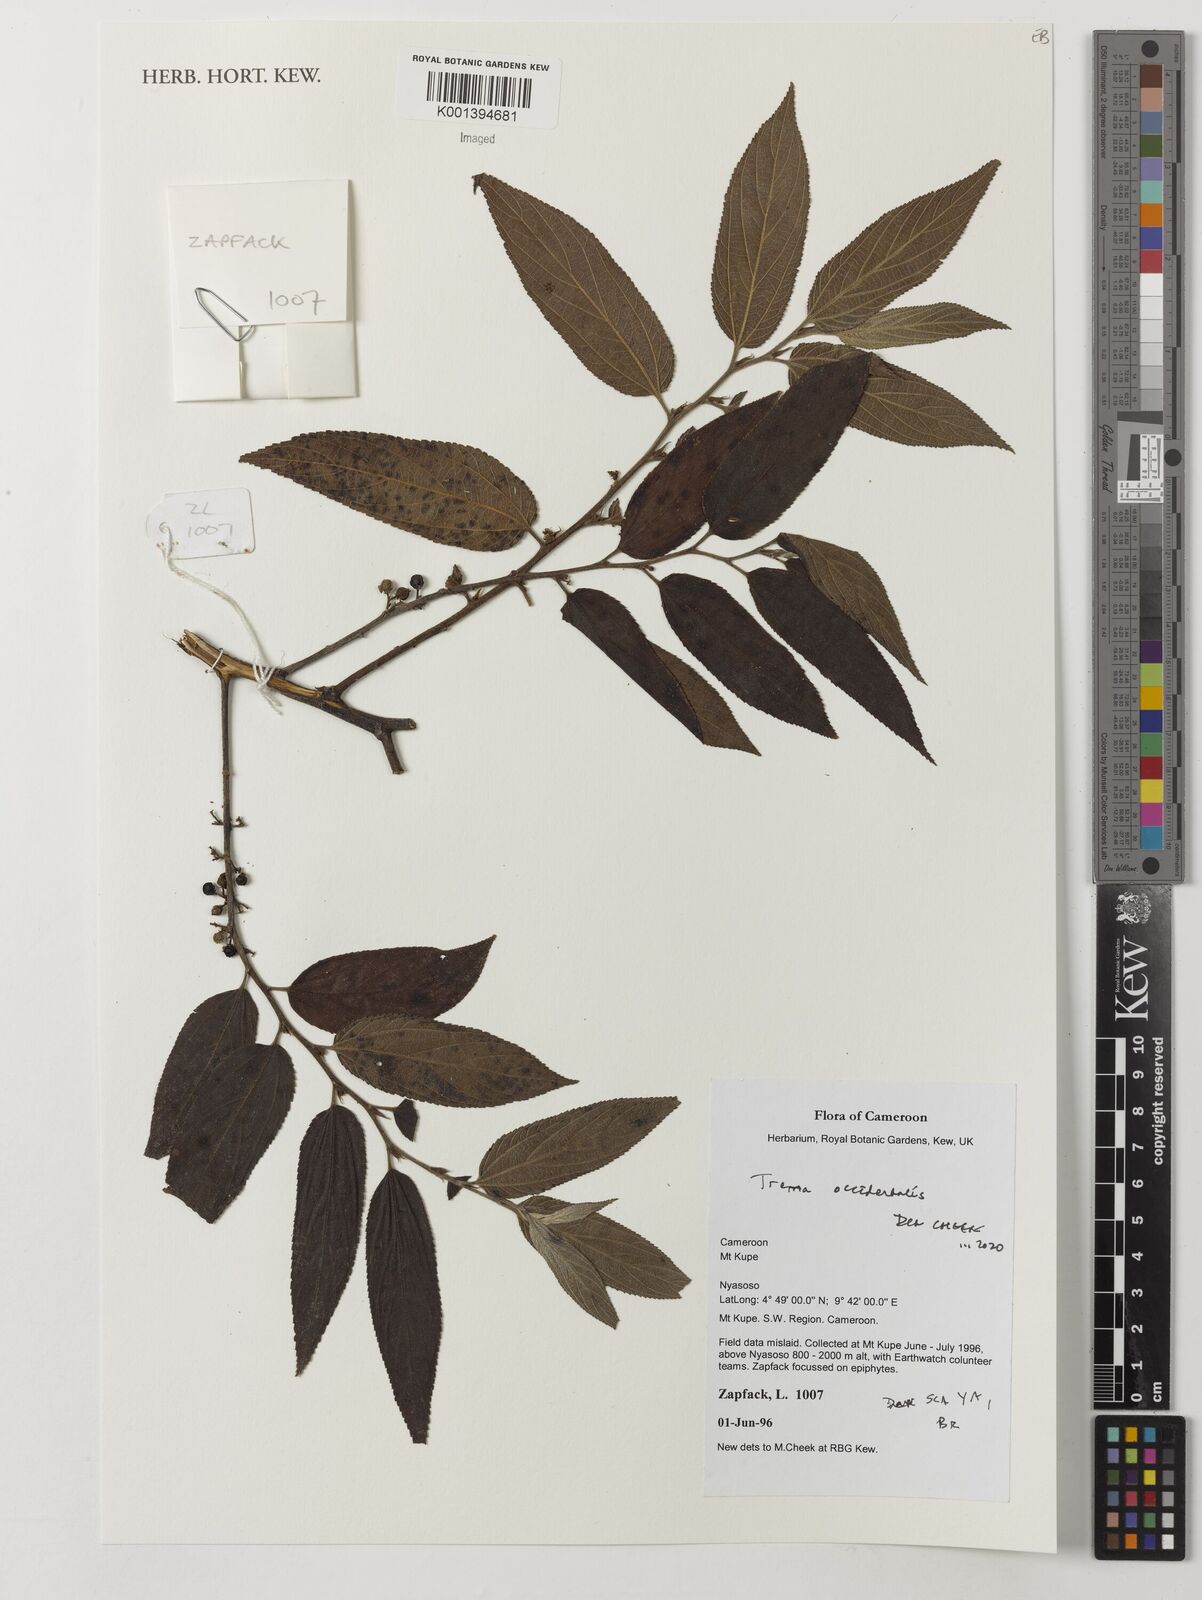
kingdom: Plantae
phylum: Tracheophyta
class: Magnoliopsida
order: Rosales
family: Cannabaceae
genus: Trema
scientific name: Trema
